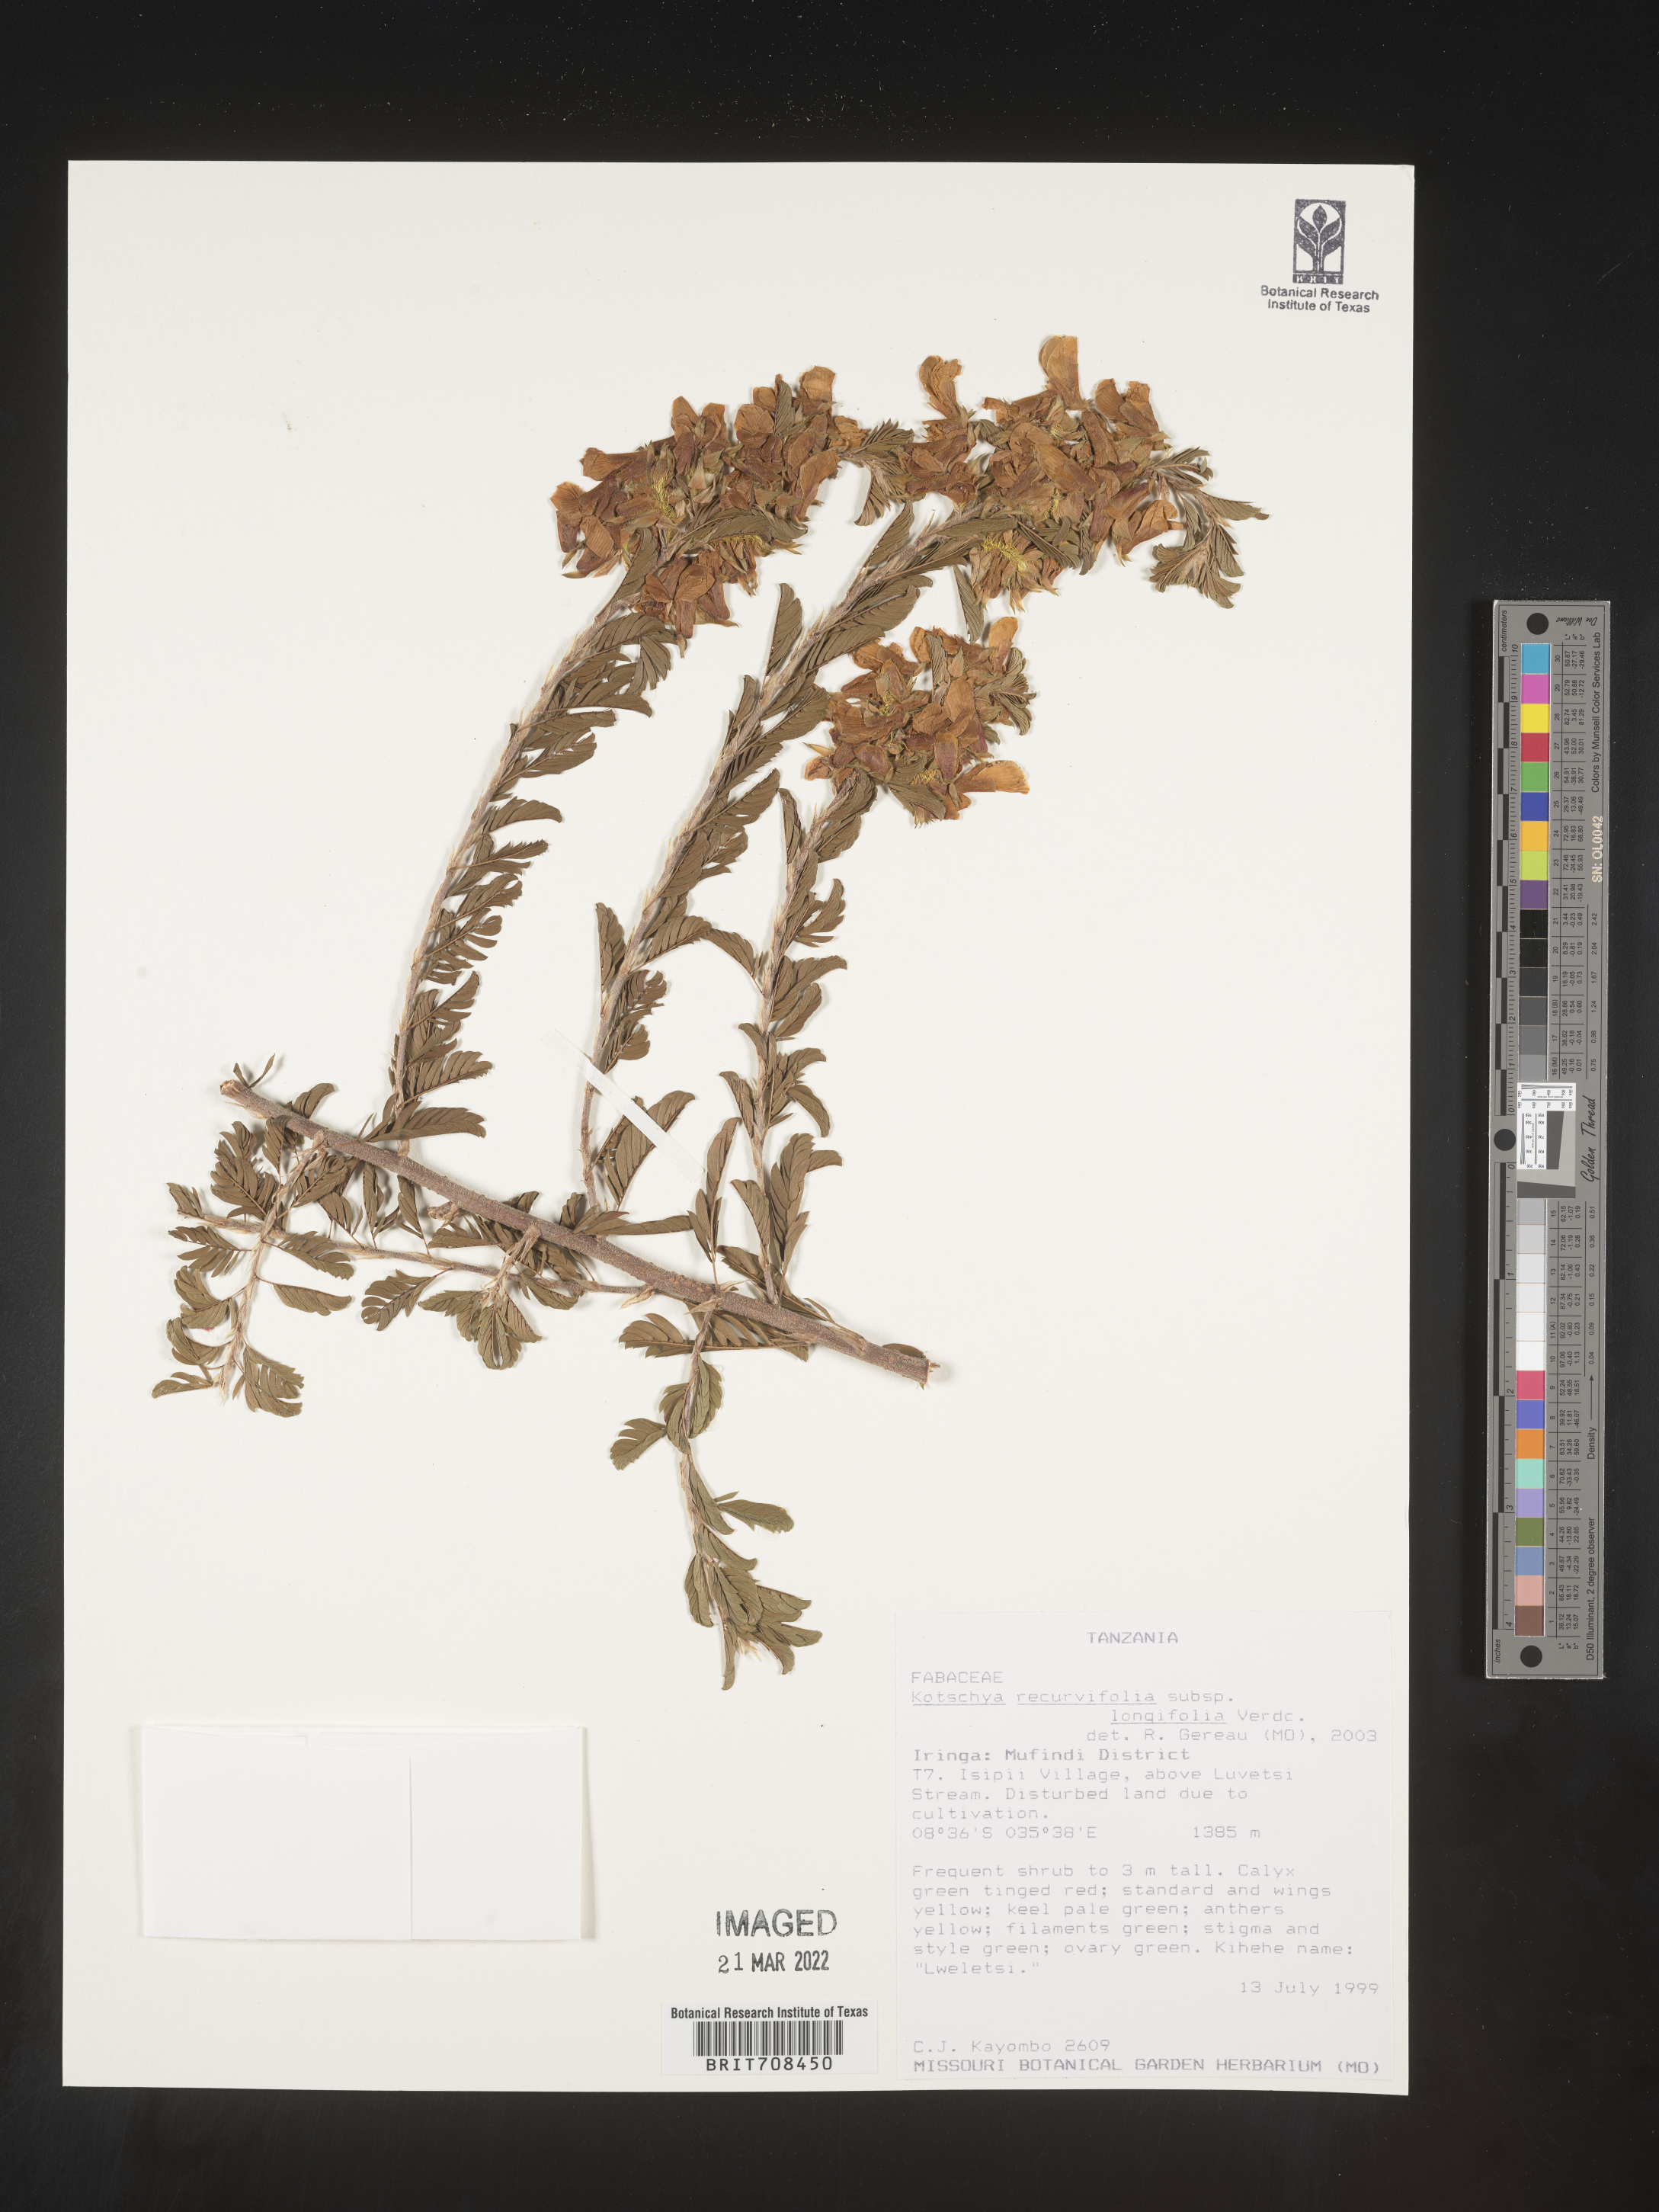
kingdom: Plantae
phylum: Tracheophyta
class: Magnoliopsida
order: Fabales
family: Fabaceae
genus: Kotschya
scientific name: Kotschya
